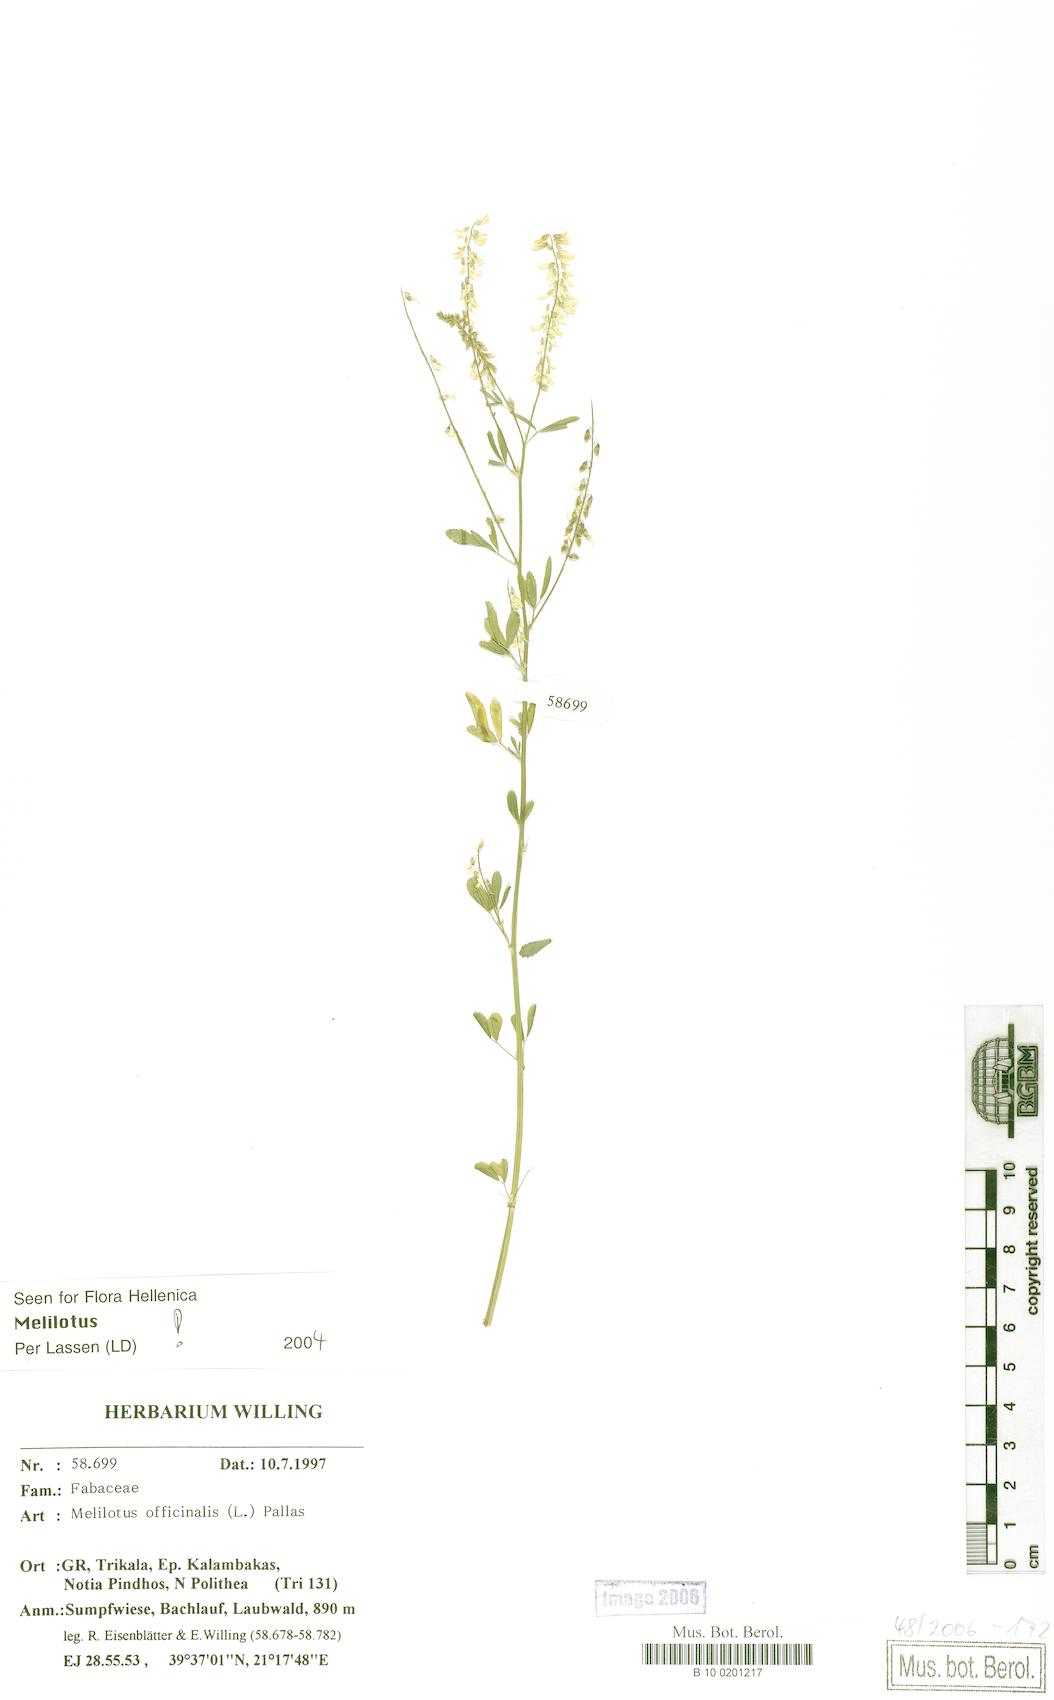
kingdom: Plantae
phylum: Tracheophyta
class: Magnoliopsida
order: Fabales
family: Fabaceae
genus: Melilotus
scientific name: Melilotus officinalis
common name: Sweetclover
